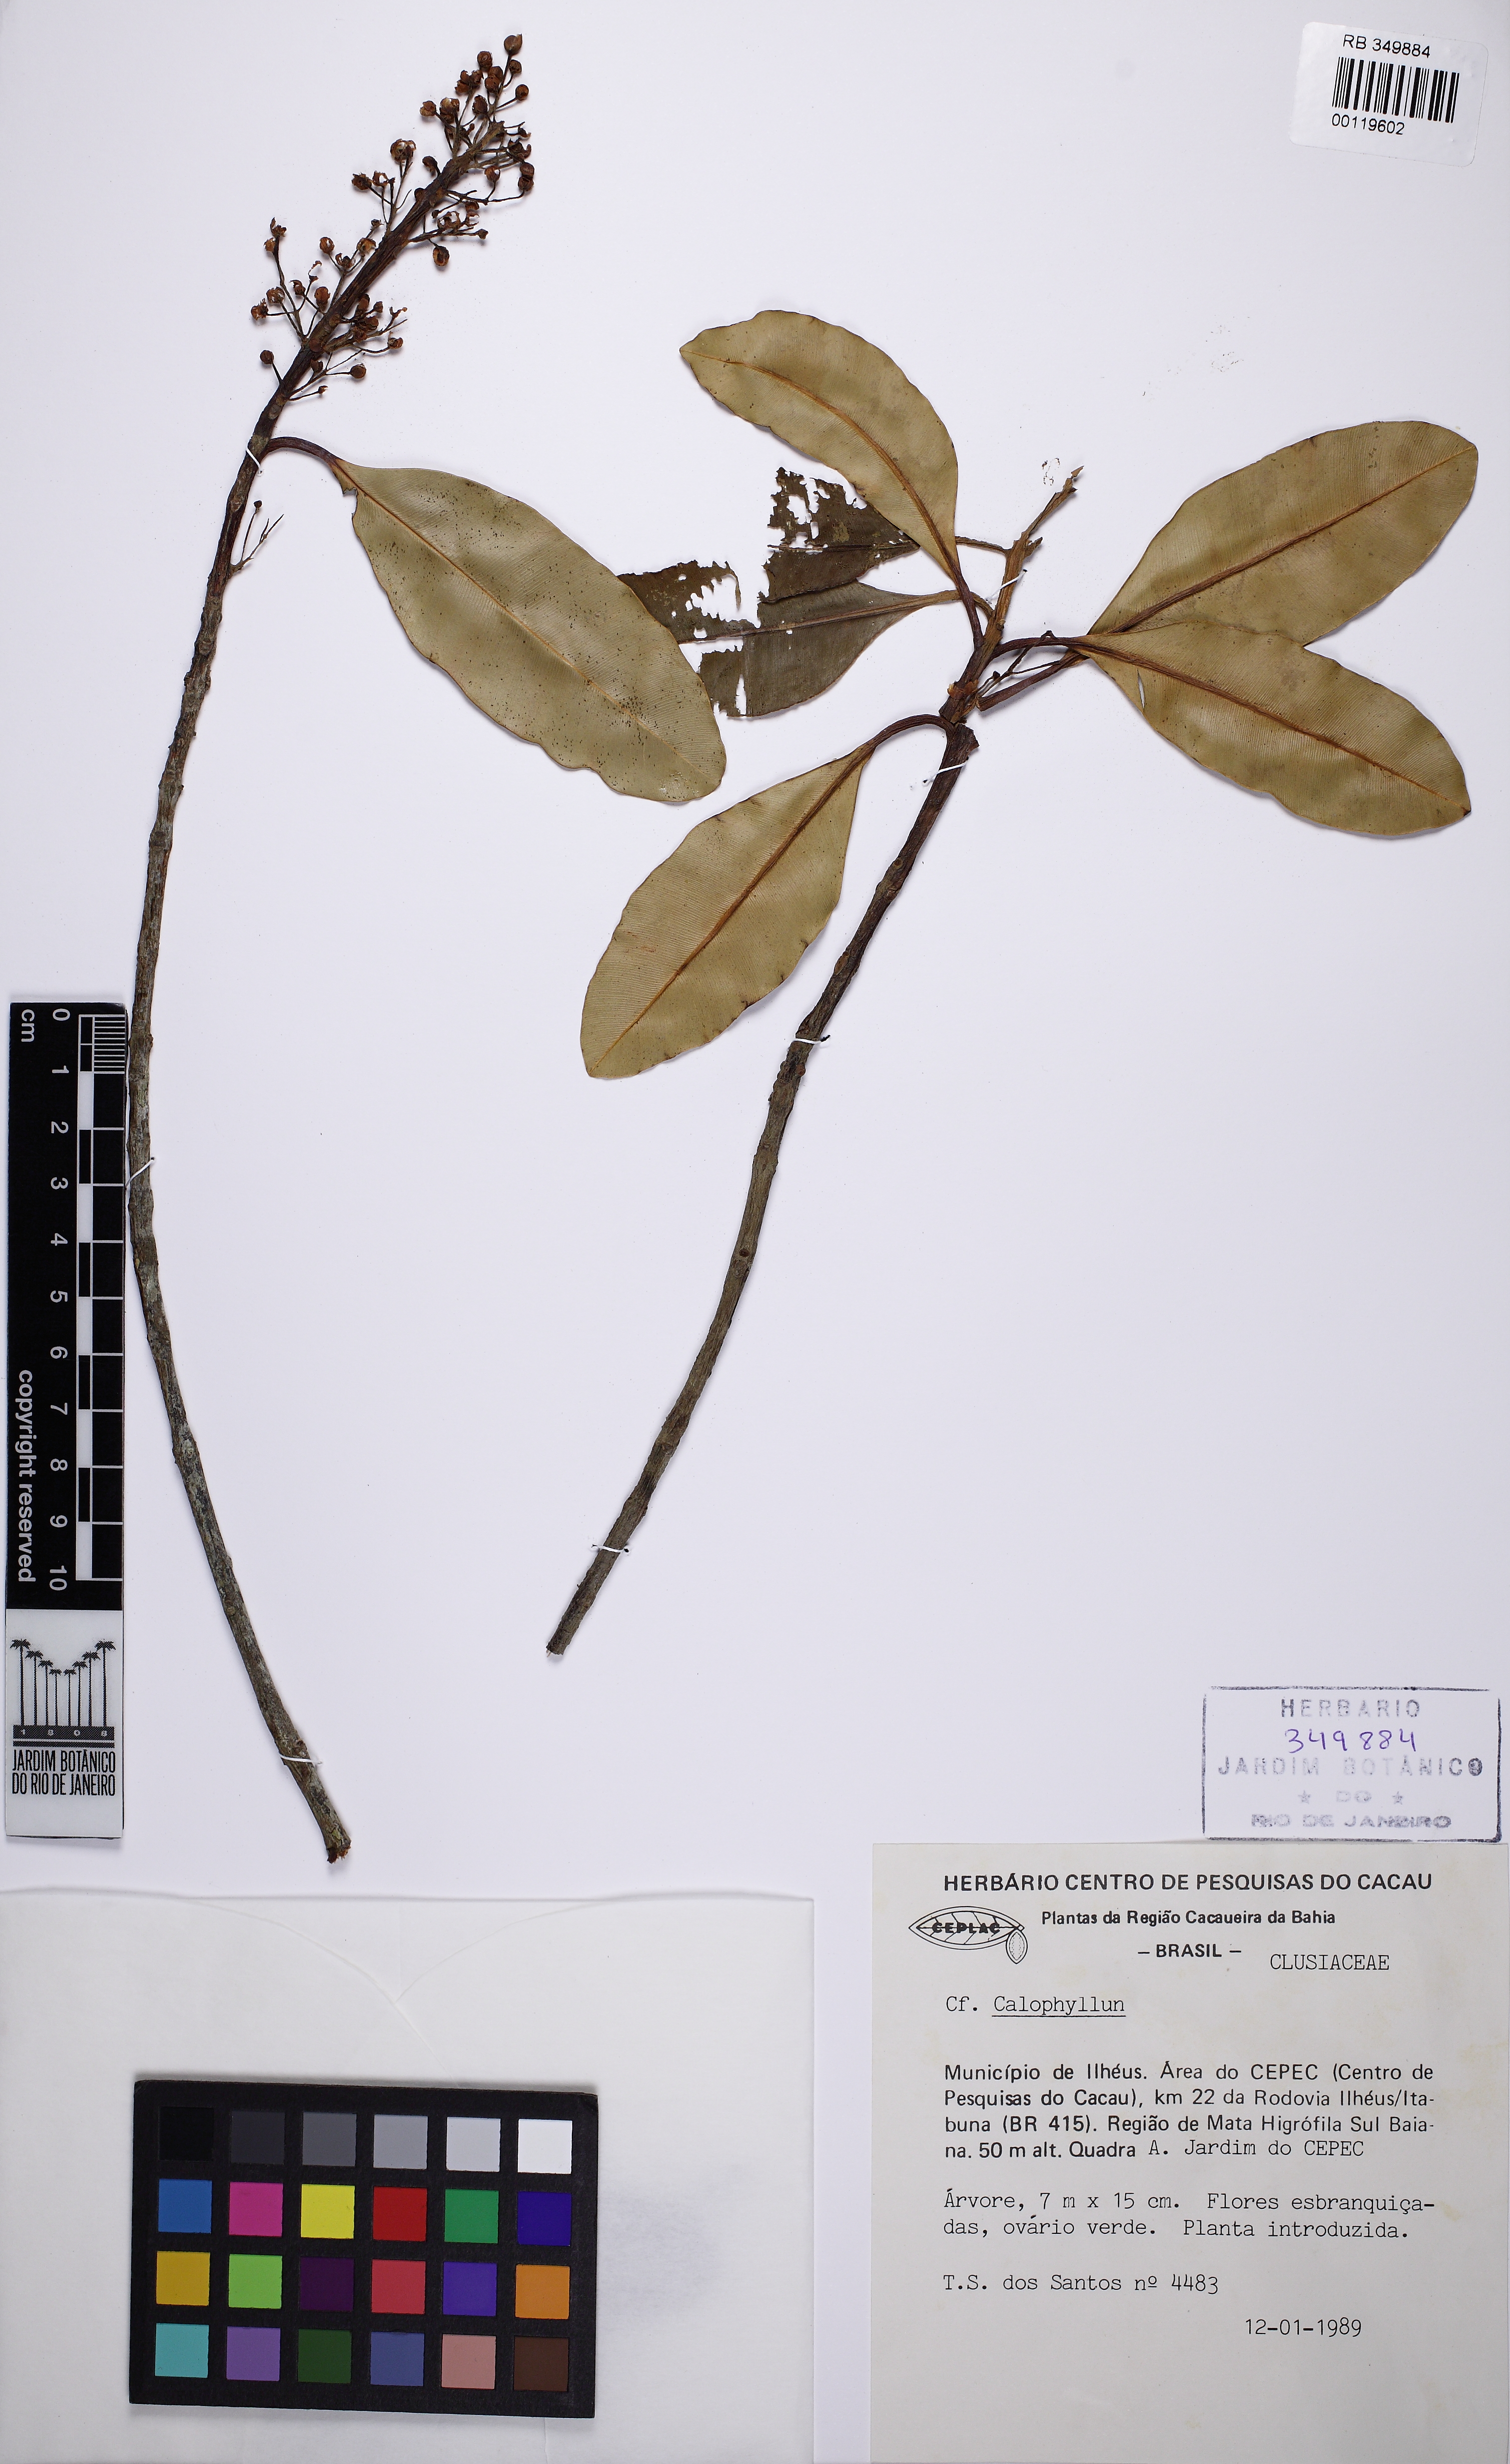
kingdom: Plantae
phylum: Tracheophyta
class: Magnoliopsida
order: Malpighiales
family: Calophyllaceae
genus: Calophyllum
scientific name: Calophyllum brasiliense
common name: Santa maria
